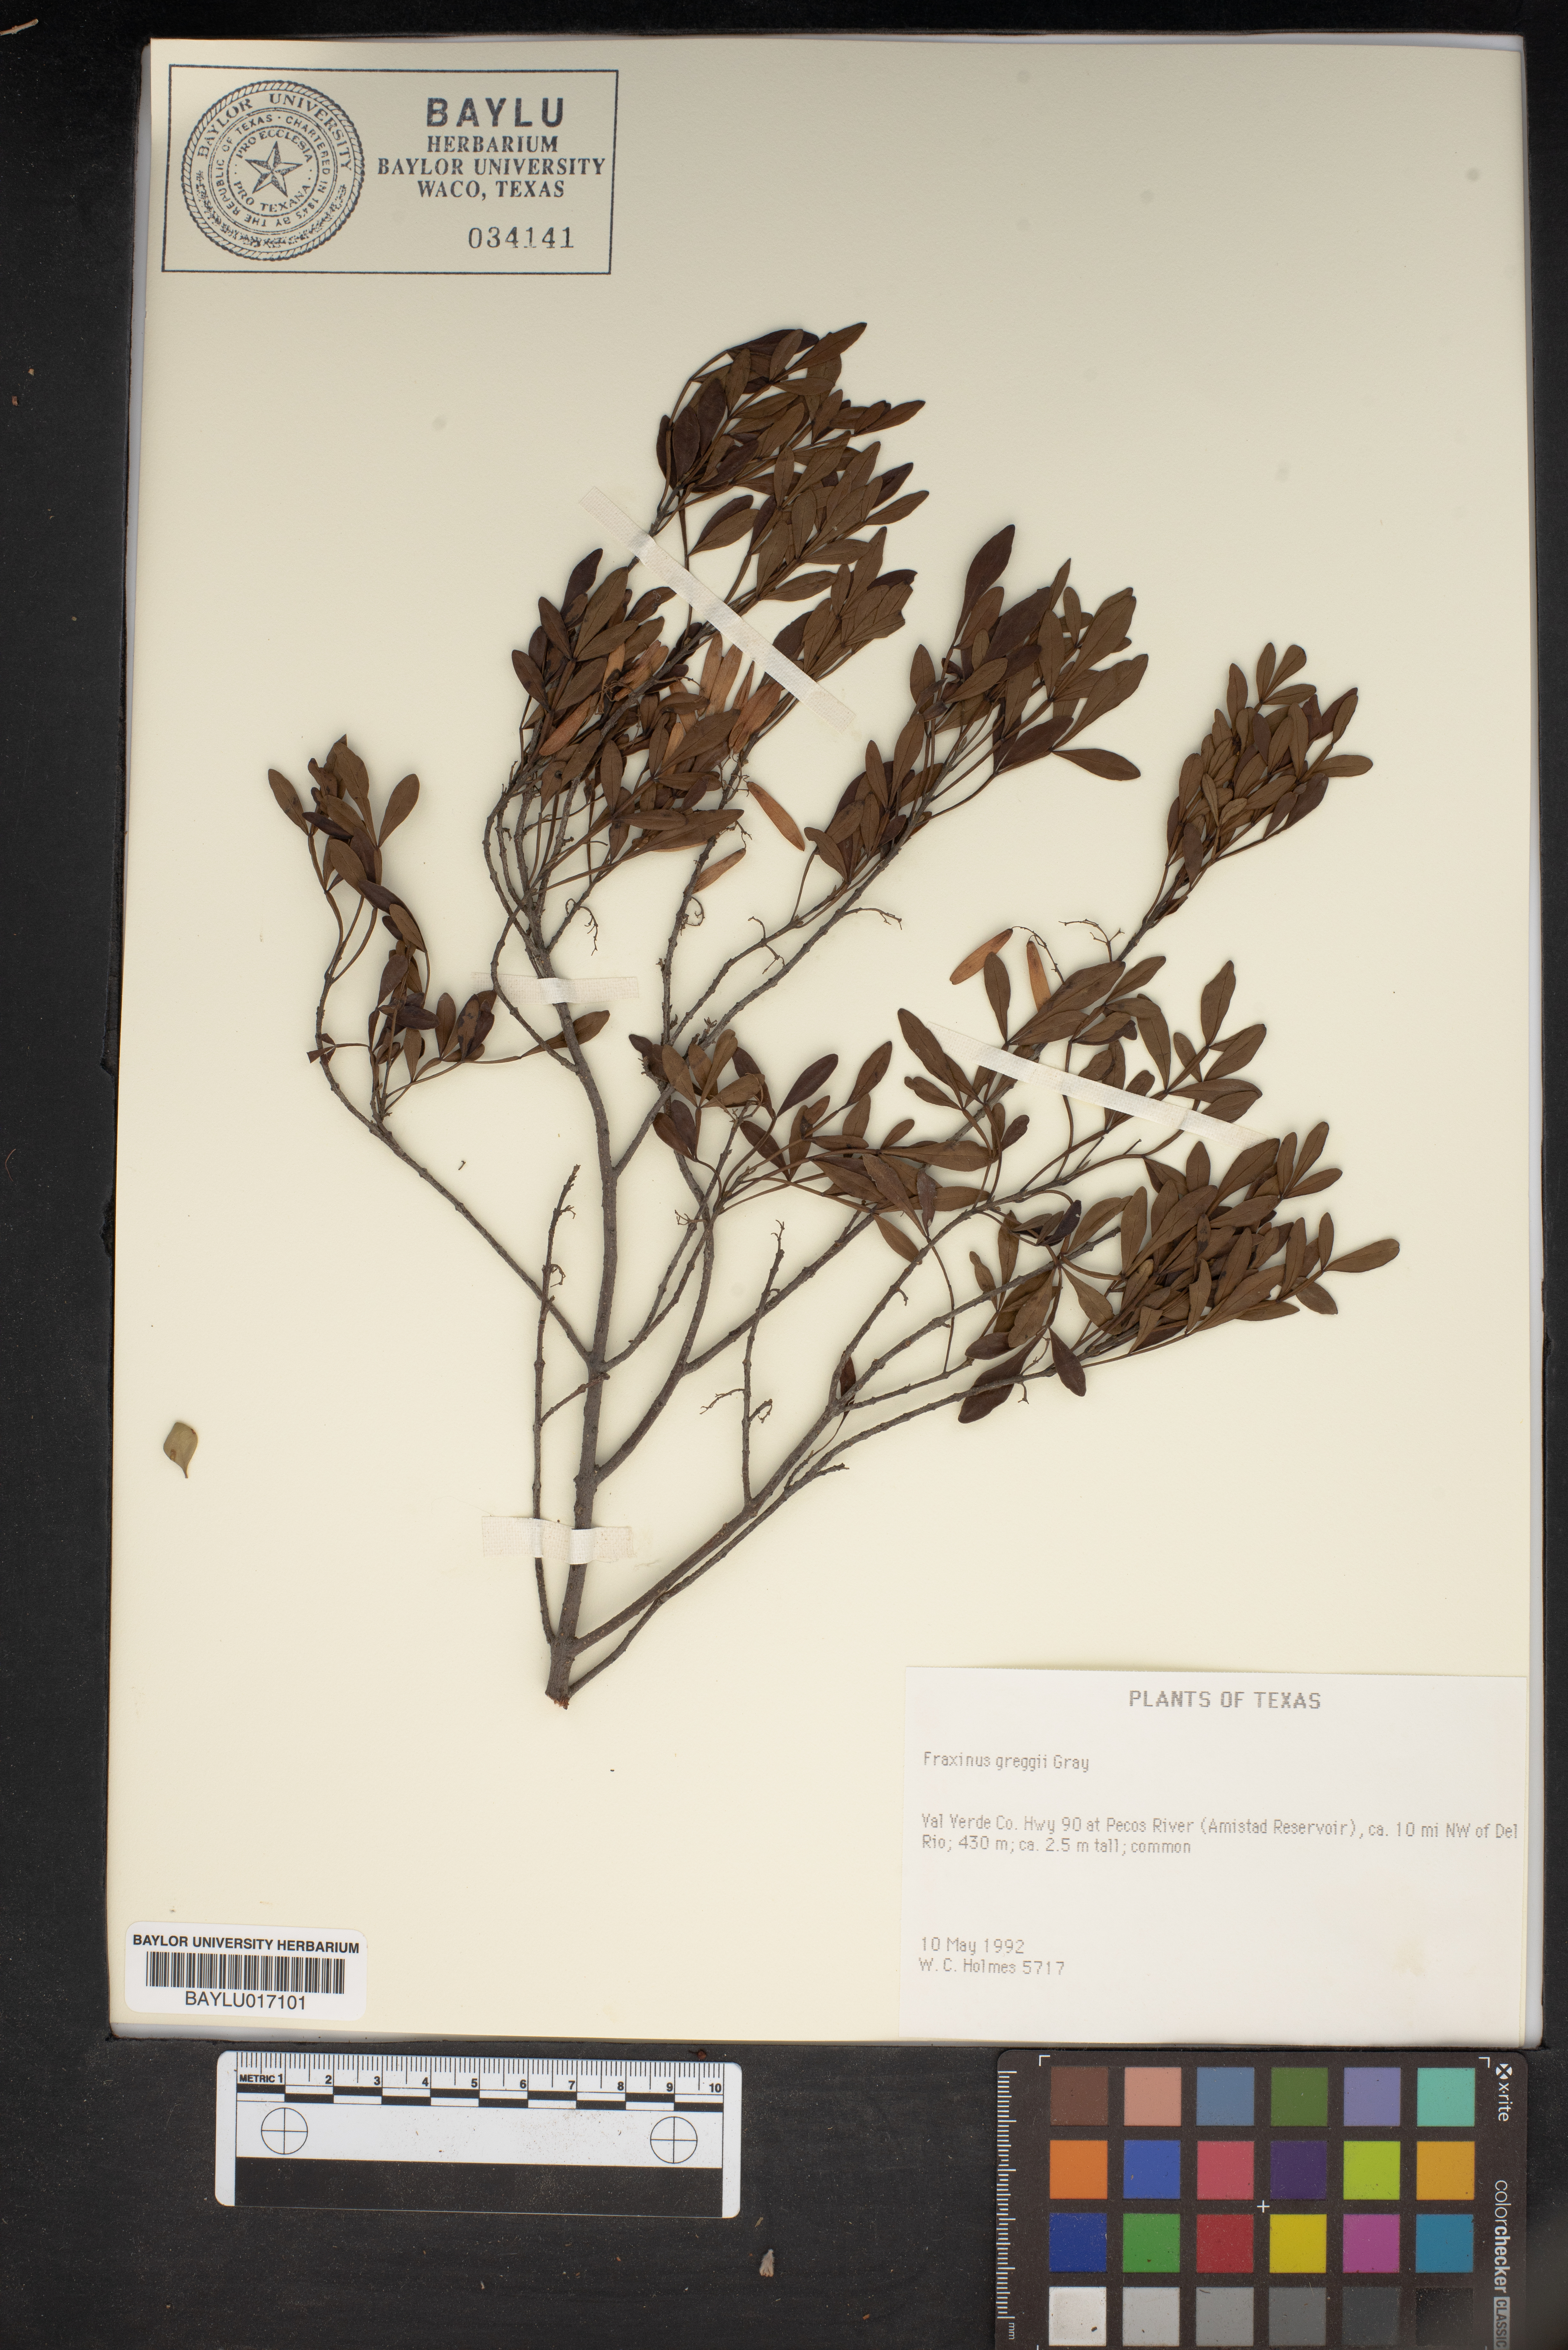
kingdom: Plantae
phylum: Tracheophyta
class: Magnoliopsida
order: Lamiales
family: Oleaceae
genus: Fraxinus
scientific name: Fraxinus greggii
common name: Gregg ash
